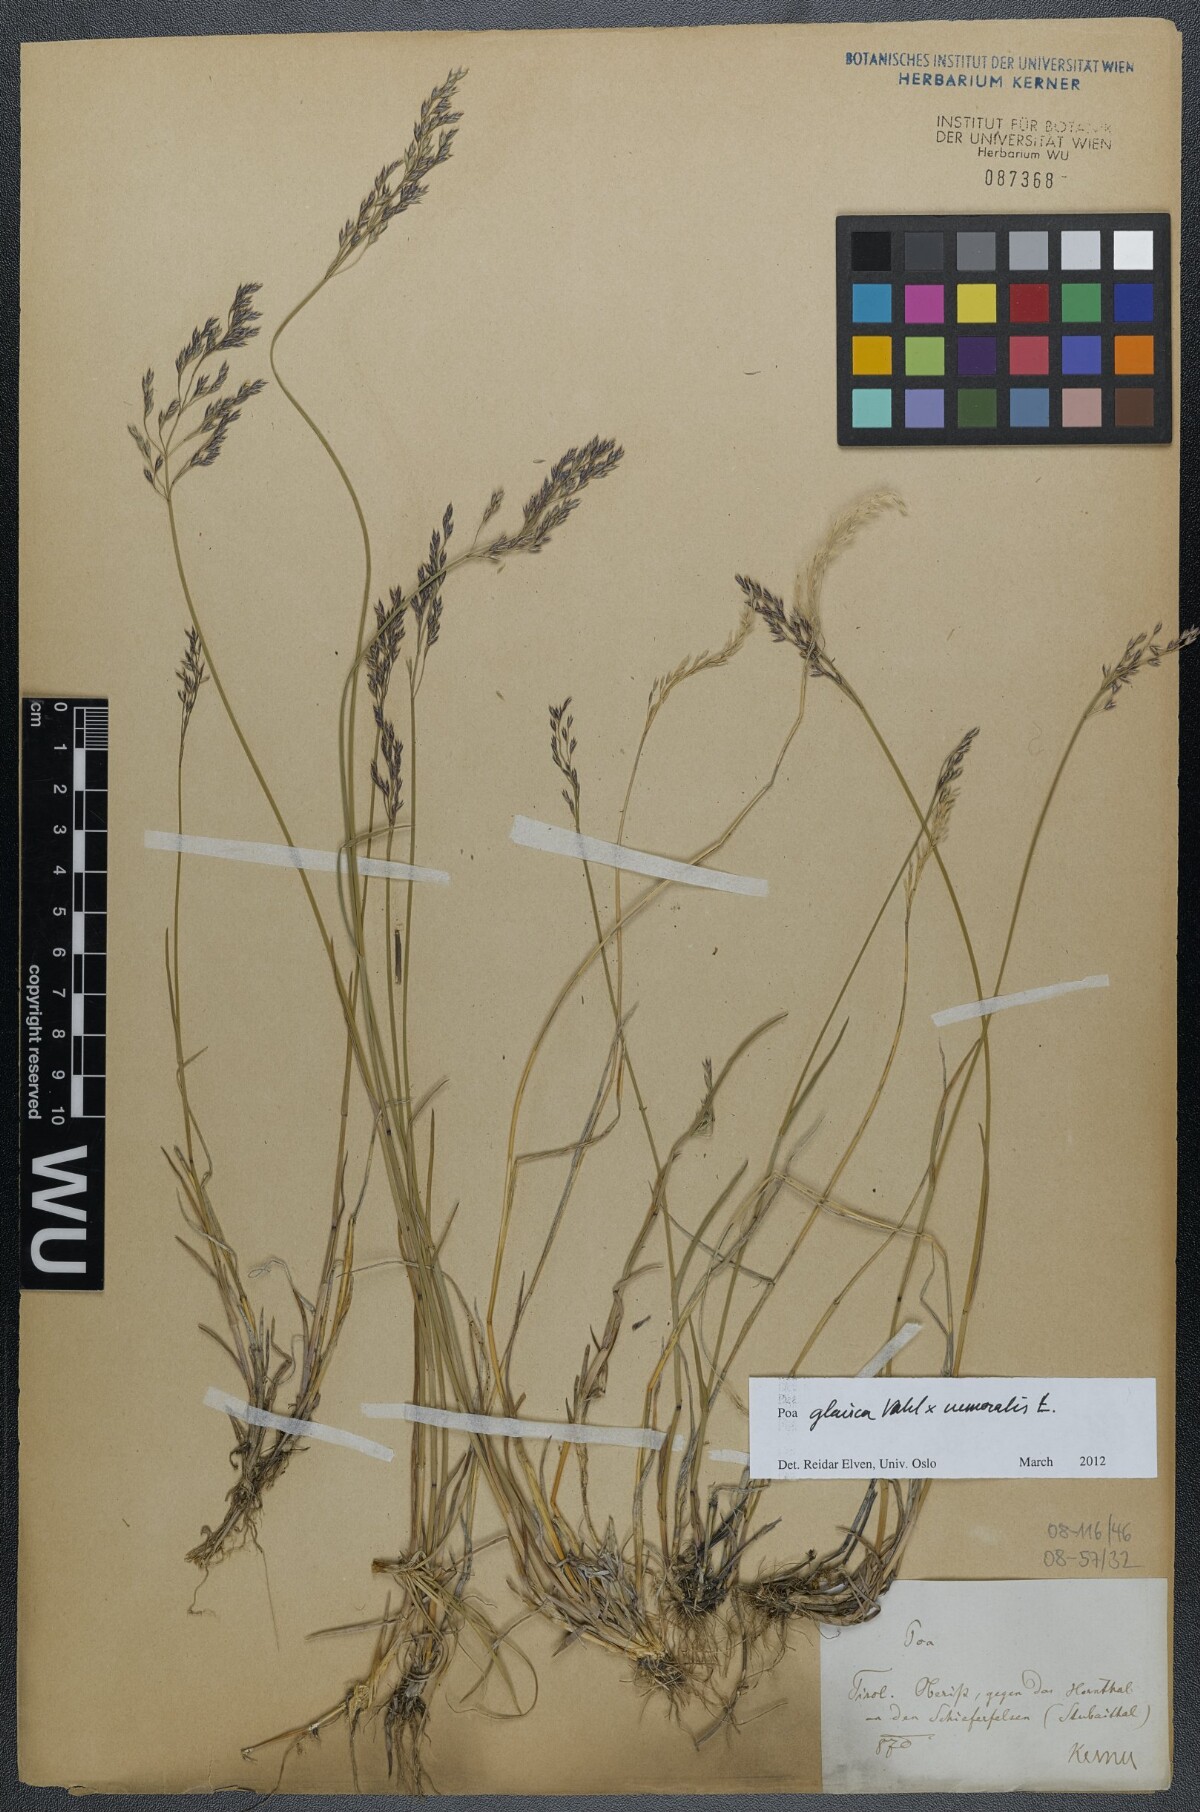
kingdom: Plantae
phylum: Tracheophyta
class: Liliopsida
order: Poales
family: Poaceae
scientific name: Poaceae
